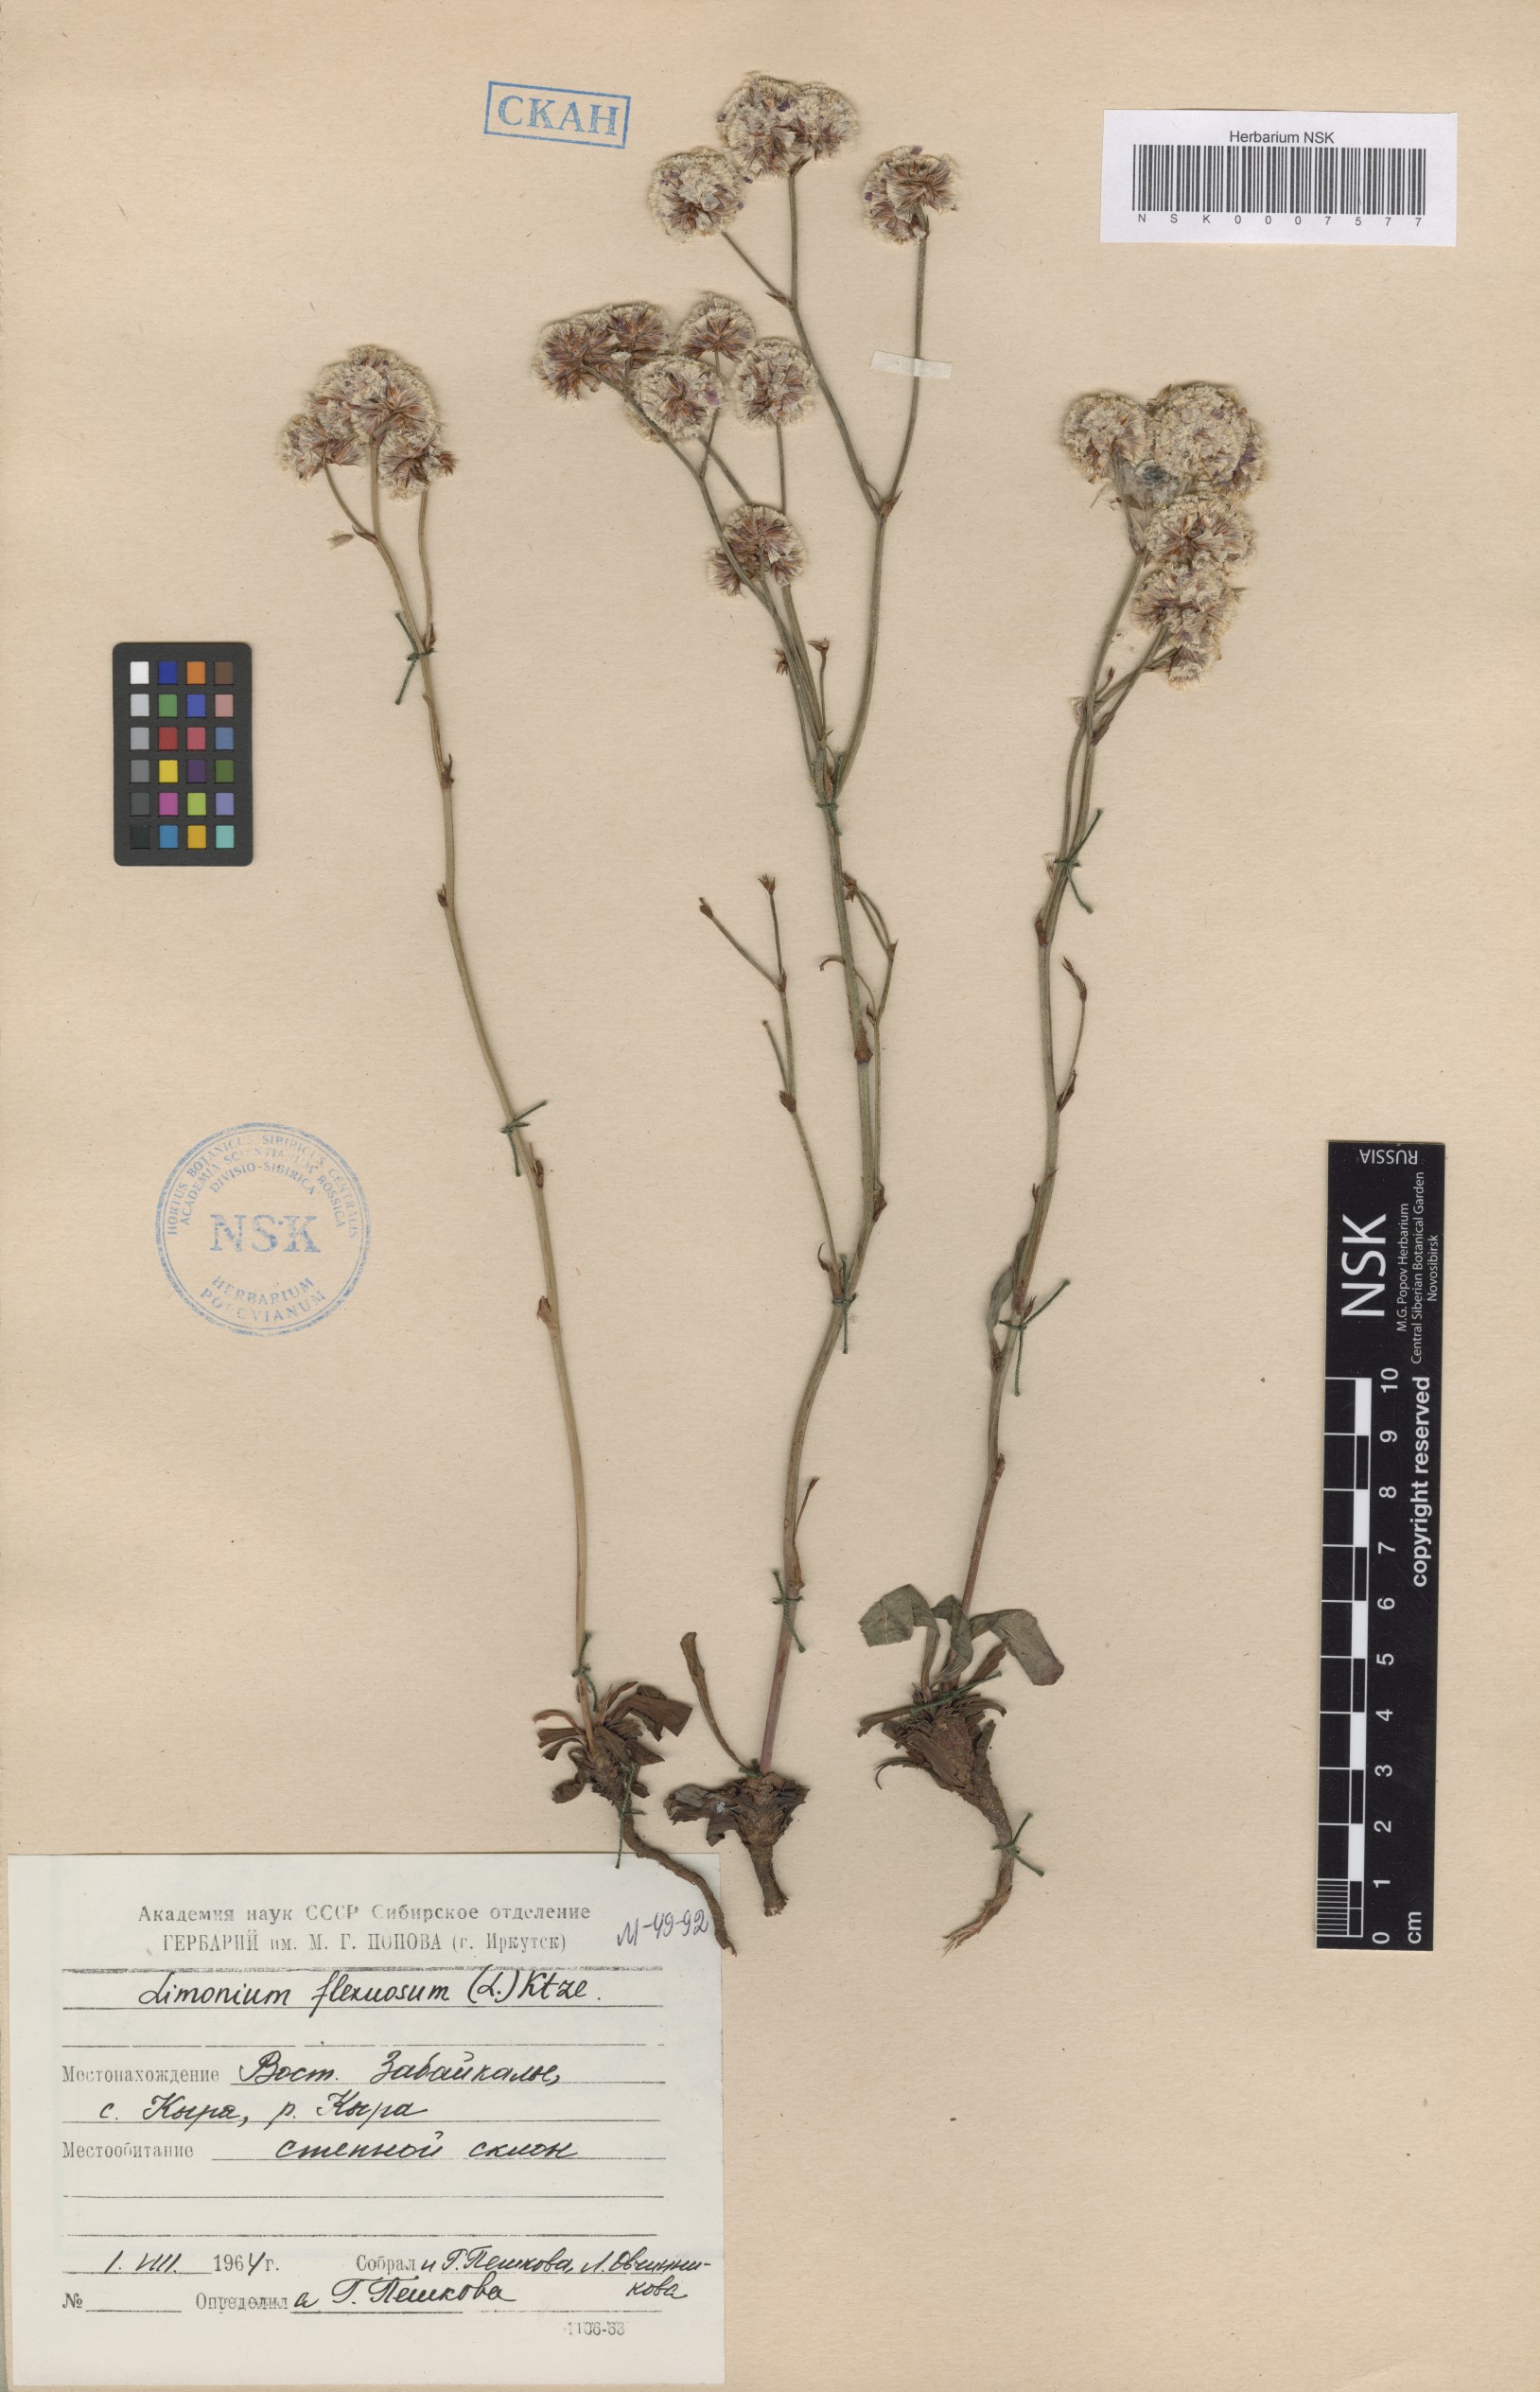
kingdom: Plantae
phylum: Tracheophyta
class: Magnoliopsida
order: Caryophyllales
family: Plumbaginaceae
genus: Limonium
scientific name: Limonium flexuosum
